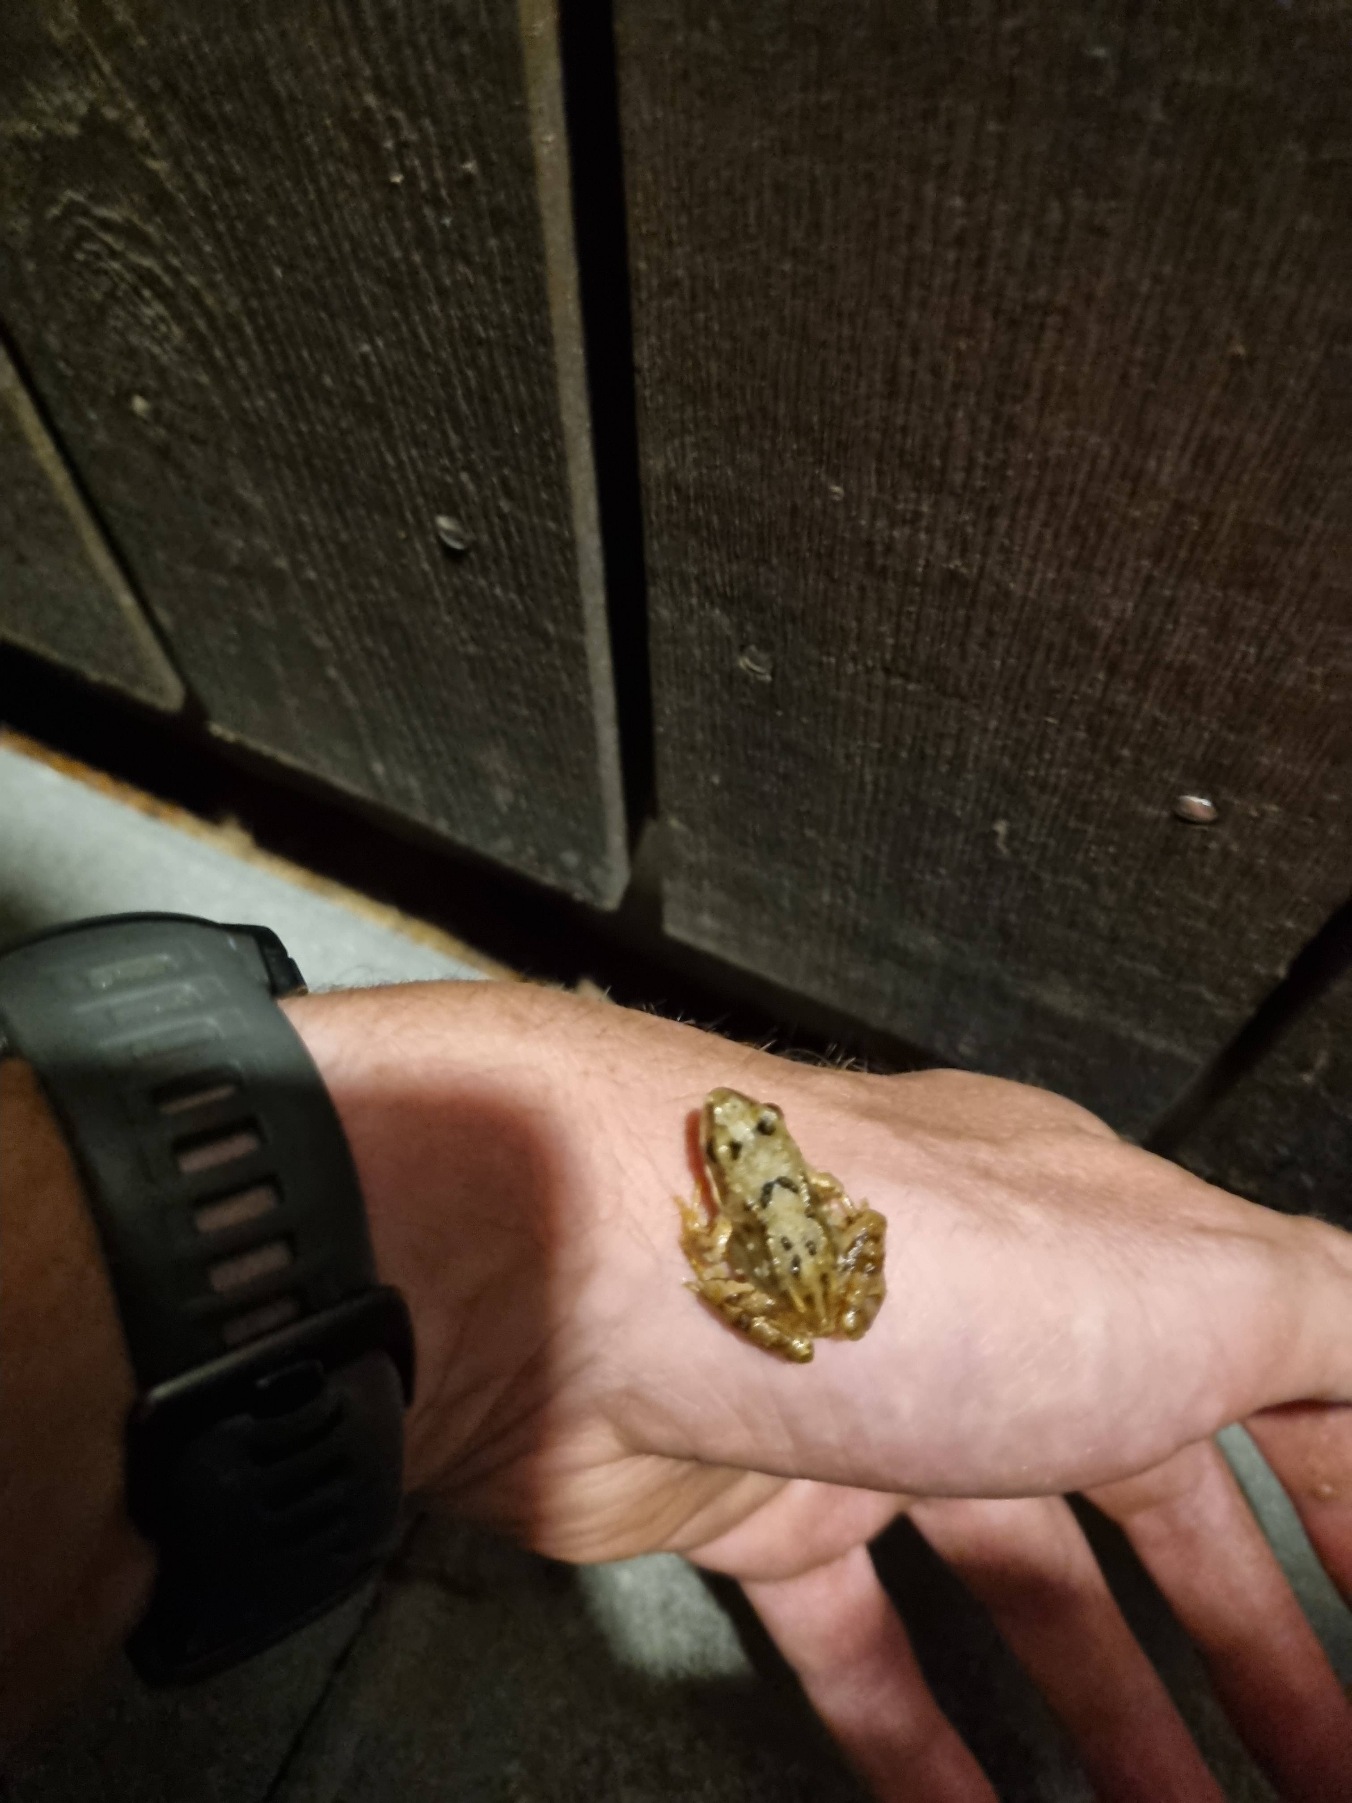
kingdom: Animalia
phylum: Chordata
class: Amphibia
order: Anura
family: Ranidae
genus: Rana
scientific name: Rana temporaria
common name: Butsnudet frø
